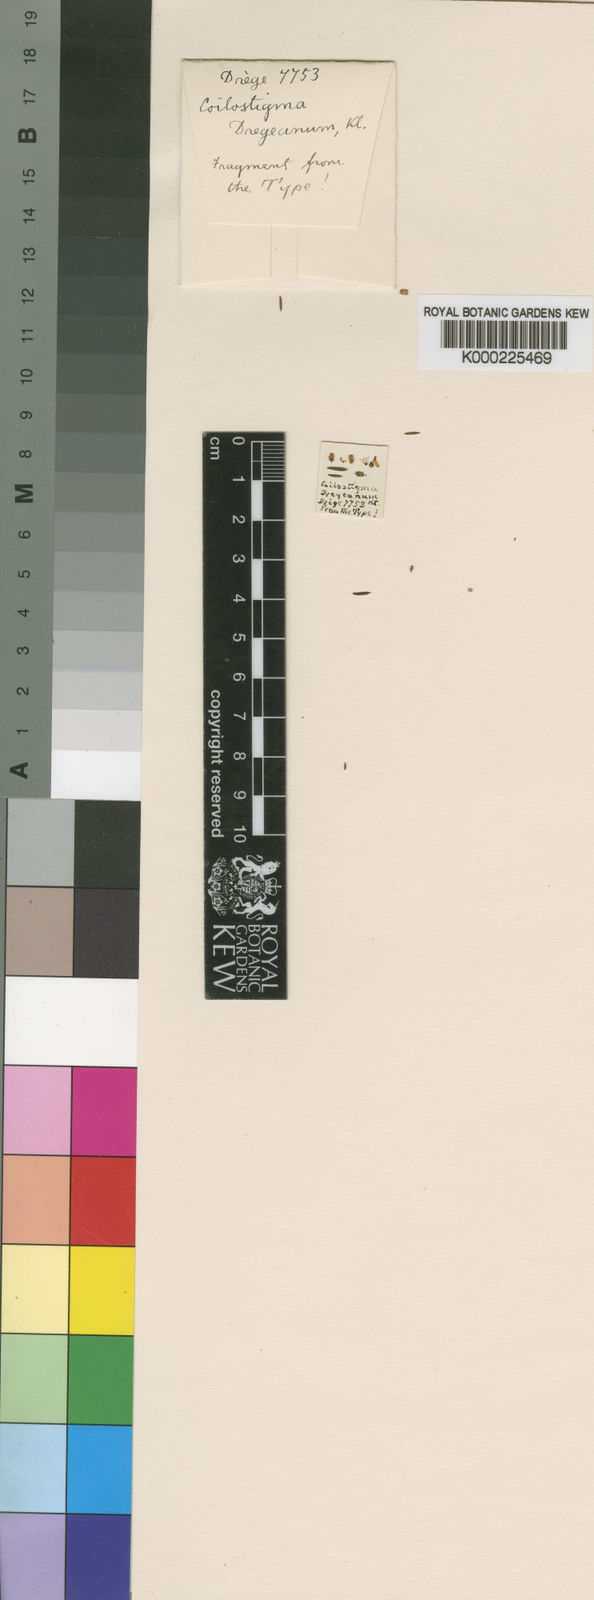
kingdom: Plantae
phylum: Tracheophyta
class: Magnoliopsida
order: Ericales
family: Ericaceae
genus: Erica
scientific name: Erica zeyheriana
